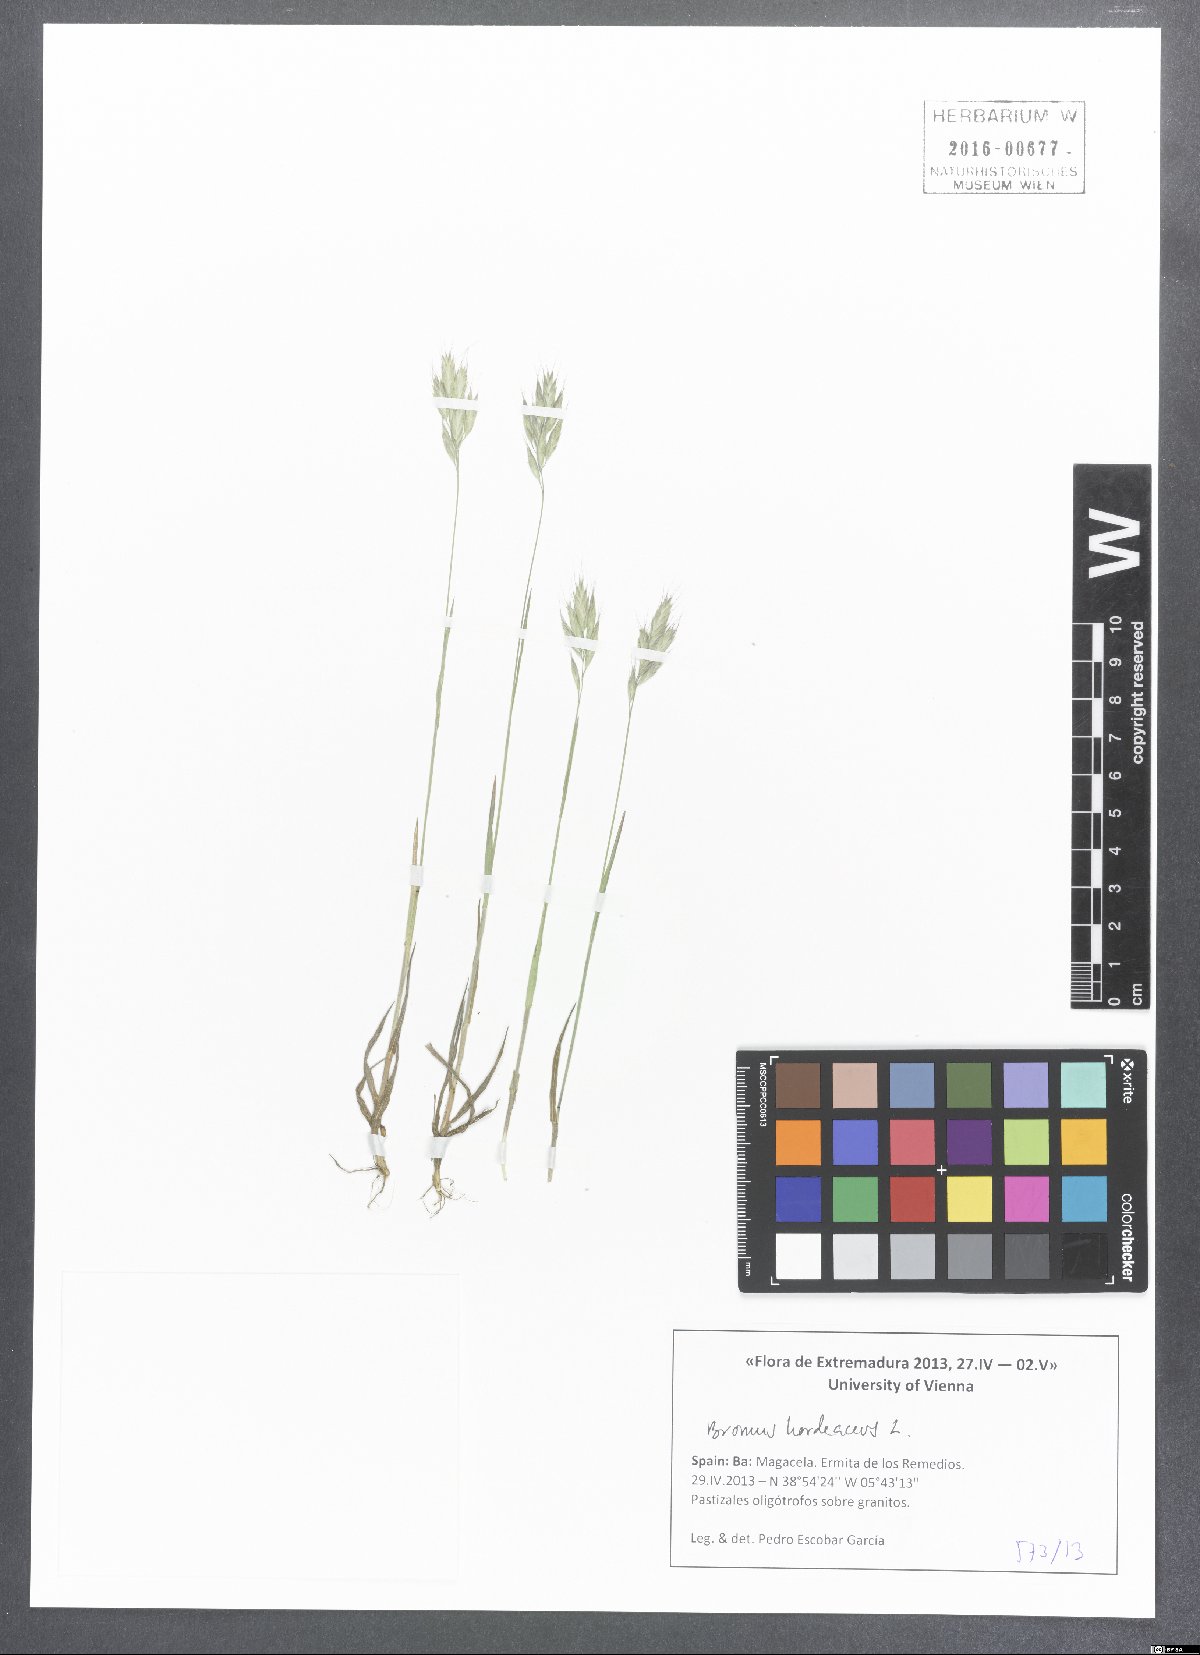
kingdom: Plantae
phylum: Tracheophyta
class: Liliopsida
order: Poales
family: Poaceae
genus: Bromus
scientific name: Bromus hordeaceus
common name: Soft brome
